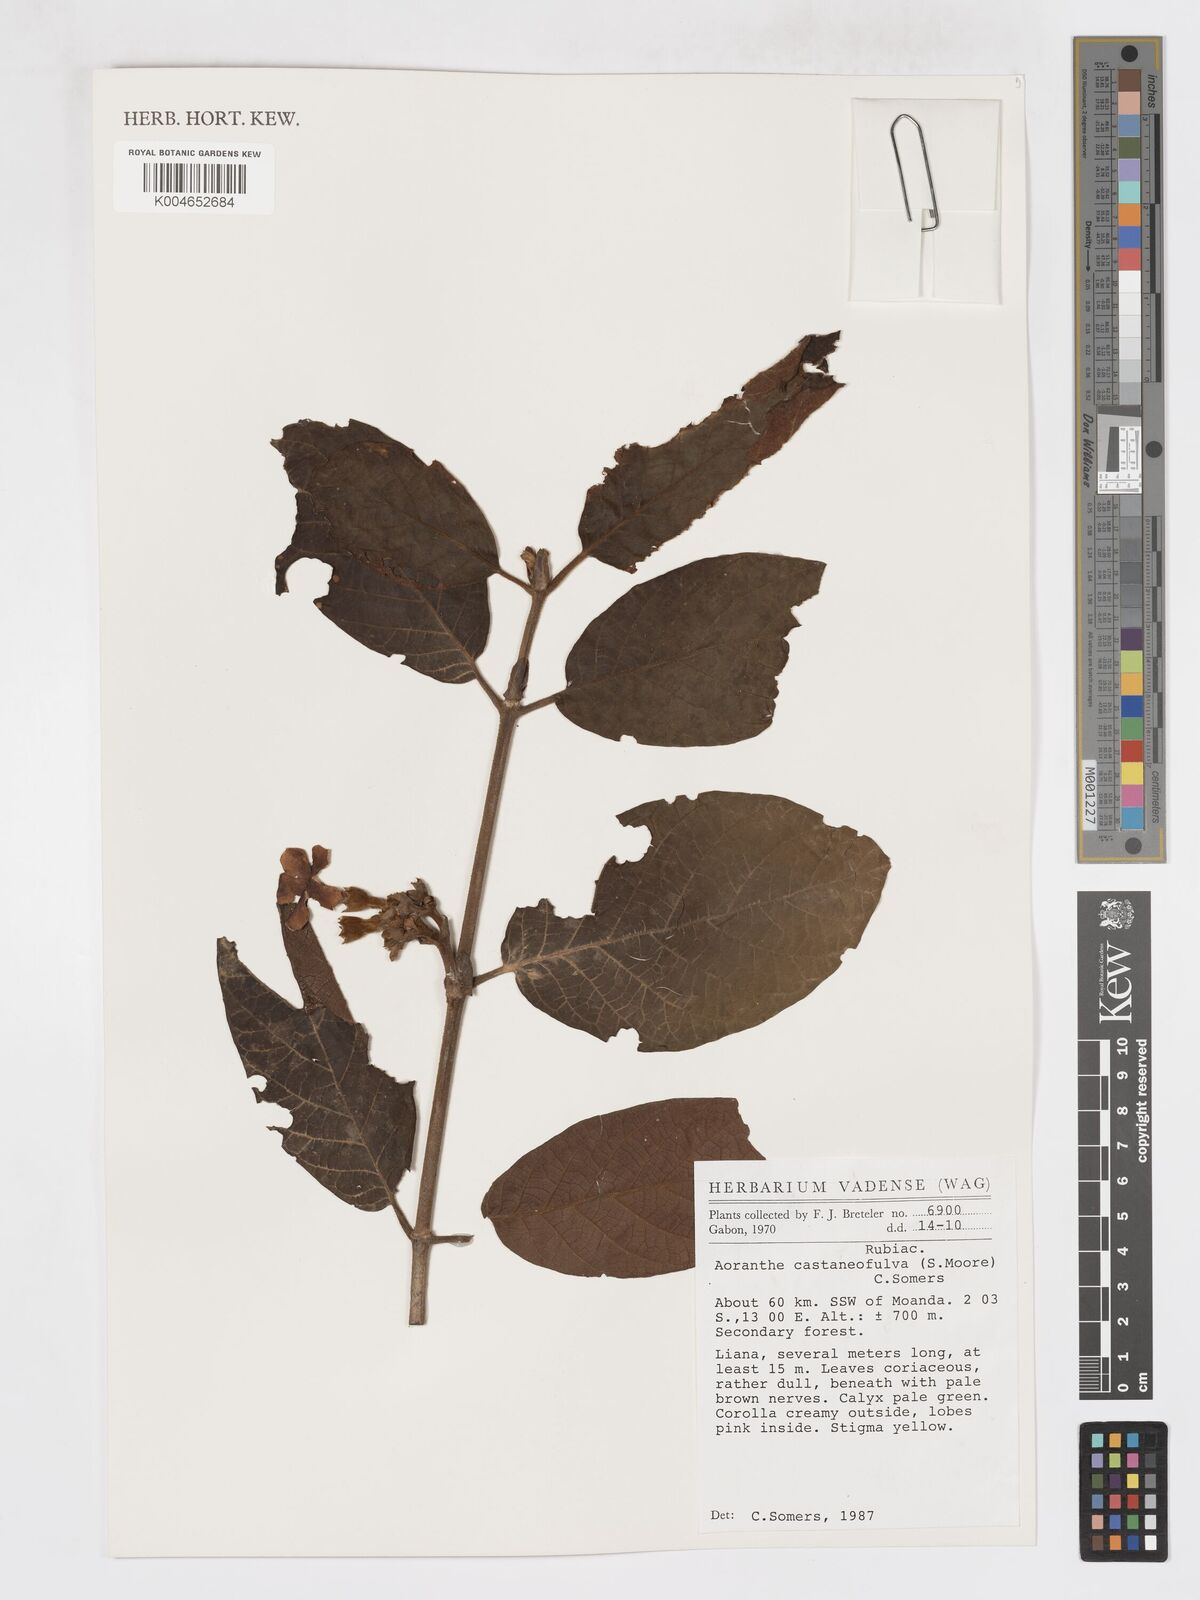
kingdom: Plantae
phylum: Tracheophyta
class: Magnoliopsida
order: Gentianales
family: Rubiaceae
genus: Aoranthe
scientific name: Aoranthe castaneofulva
